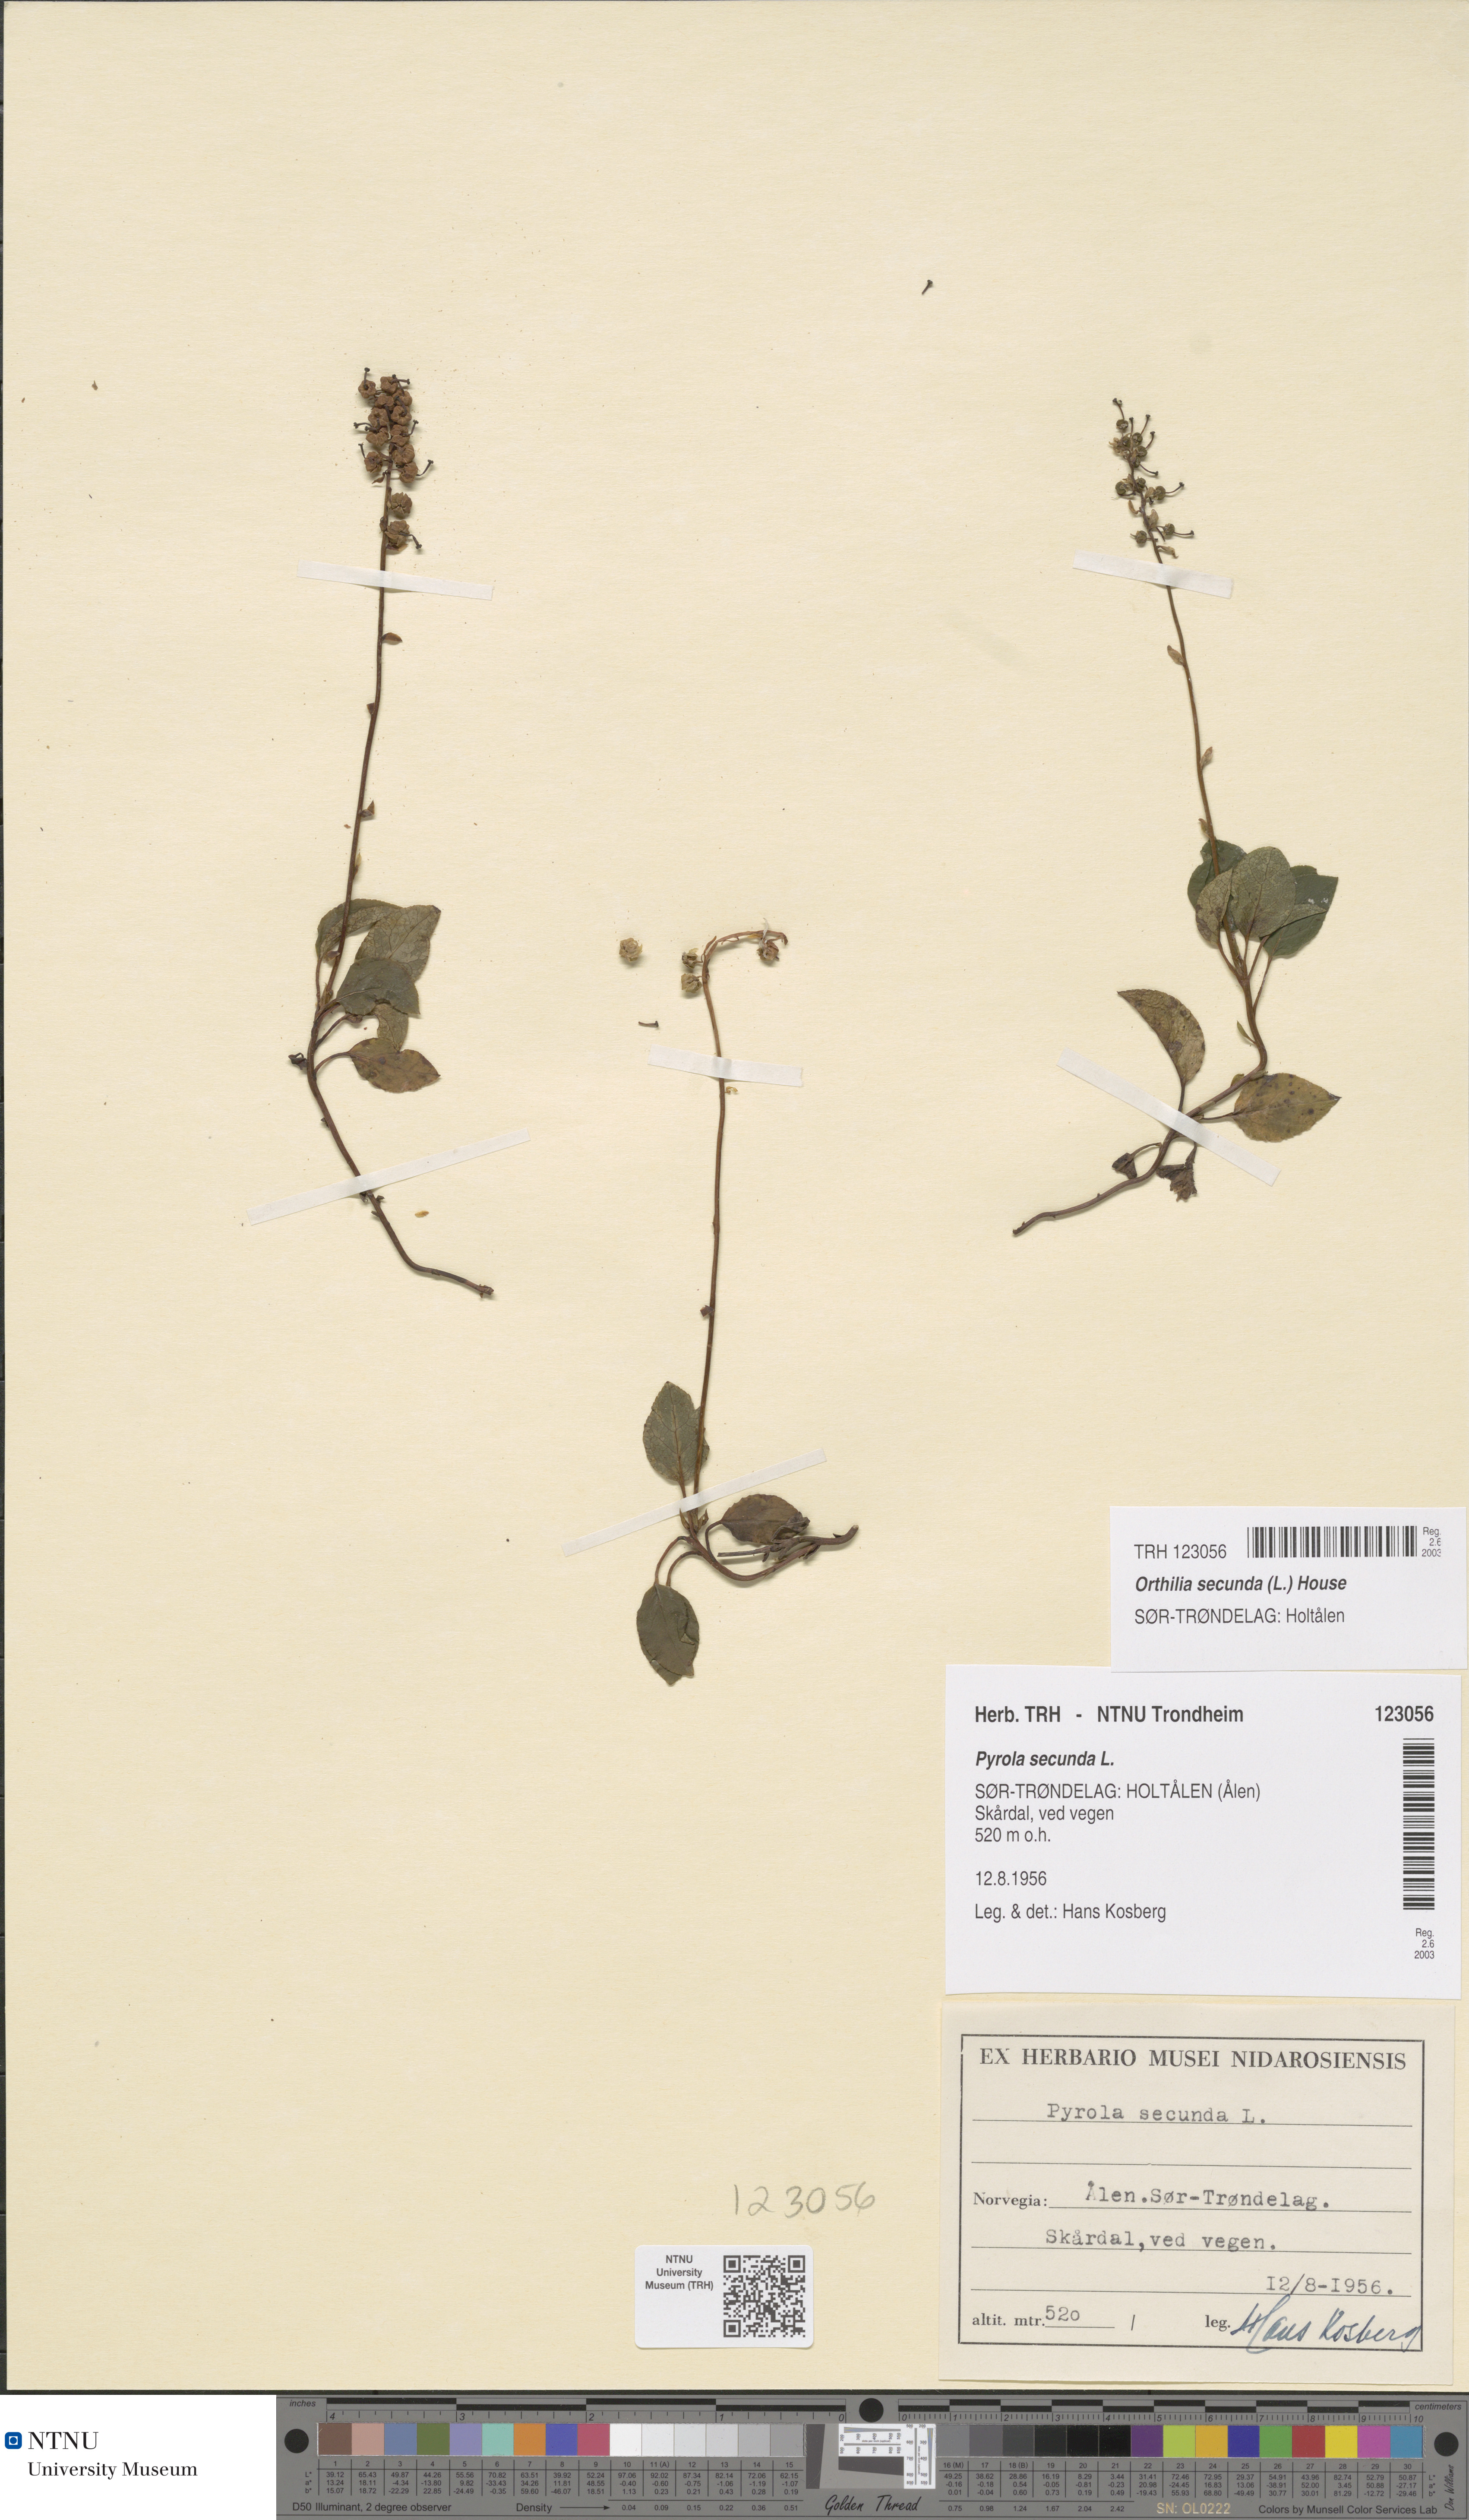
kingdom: Plantae
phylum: Tracheophyta
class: Magnoliopsida
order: Ericales
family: Ericaceae
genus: Orthilia
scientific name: Orthilia secunda
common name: One-sided orthilia
